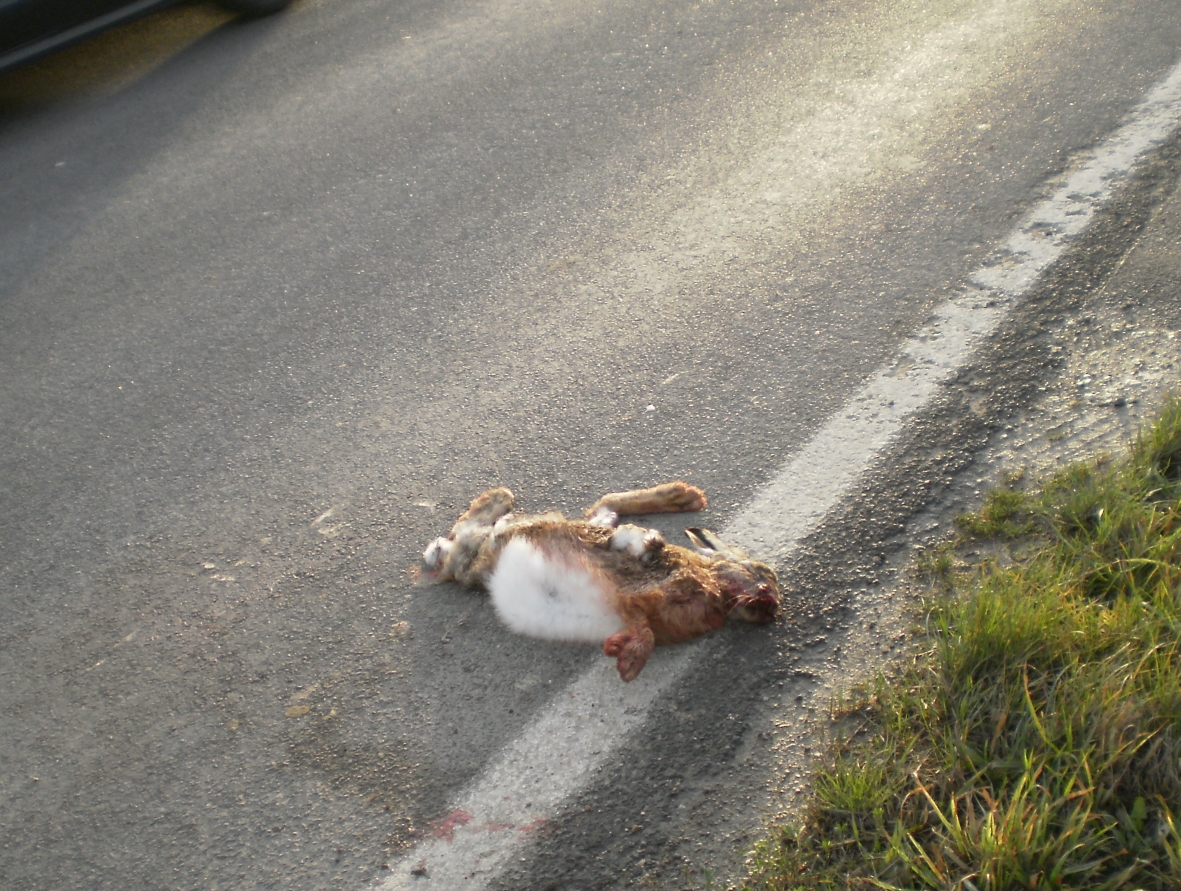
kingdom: Animalia
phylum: Chordata
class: Mammalia
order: Lagomorpha
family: Leporidae
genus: Lepus
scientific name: Lepus europaeus
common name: European hare
